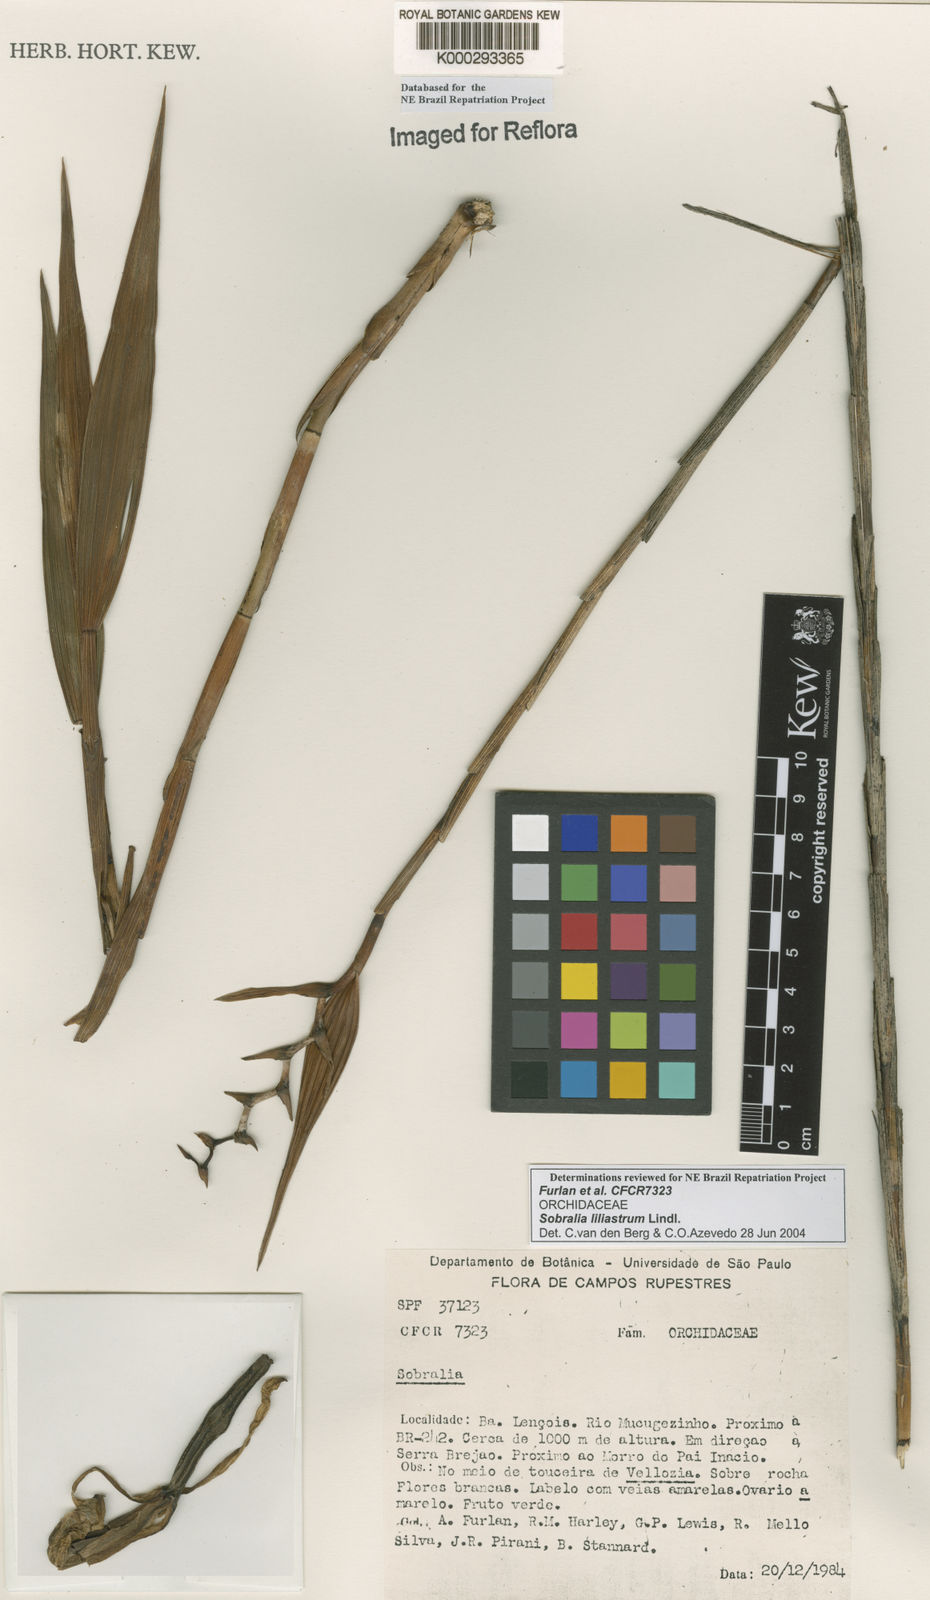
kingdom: Plantae
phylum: Tracheophyta
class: Liliopsida
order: Asparagales
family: Orchidaceae
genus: Sobralia
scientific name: Sobralia liliastrum
